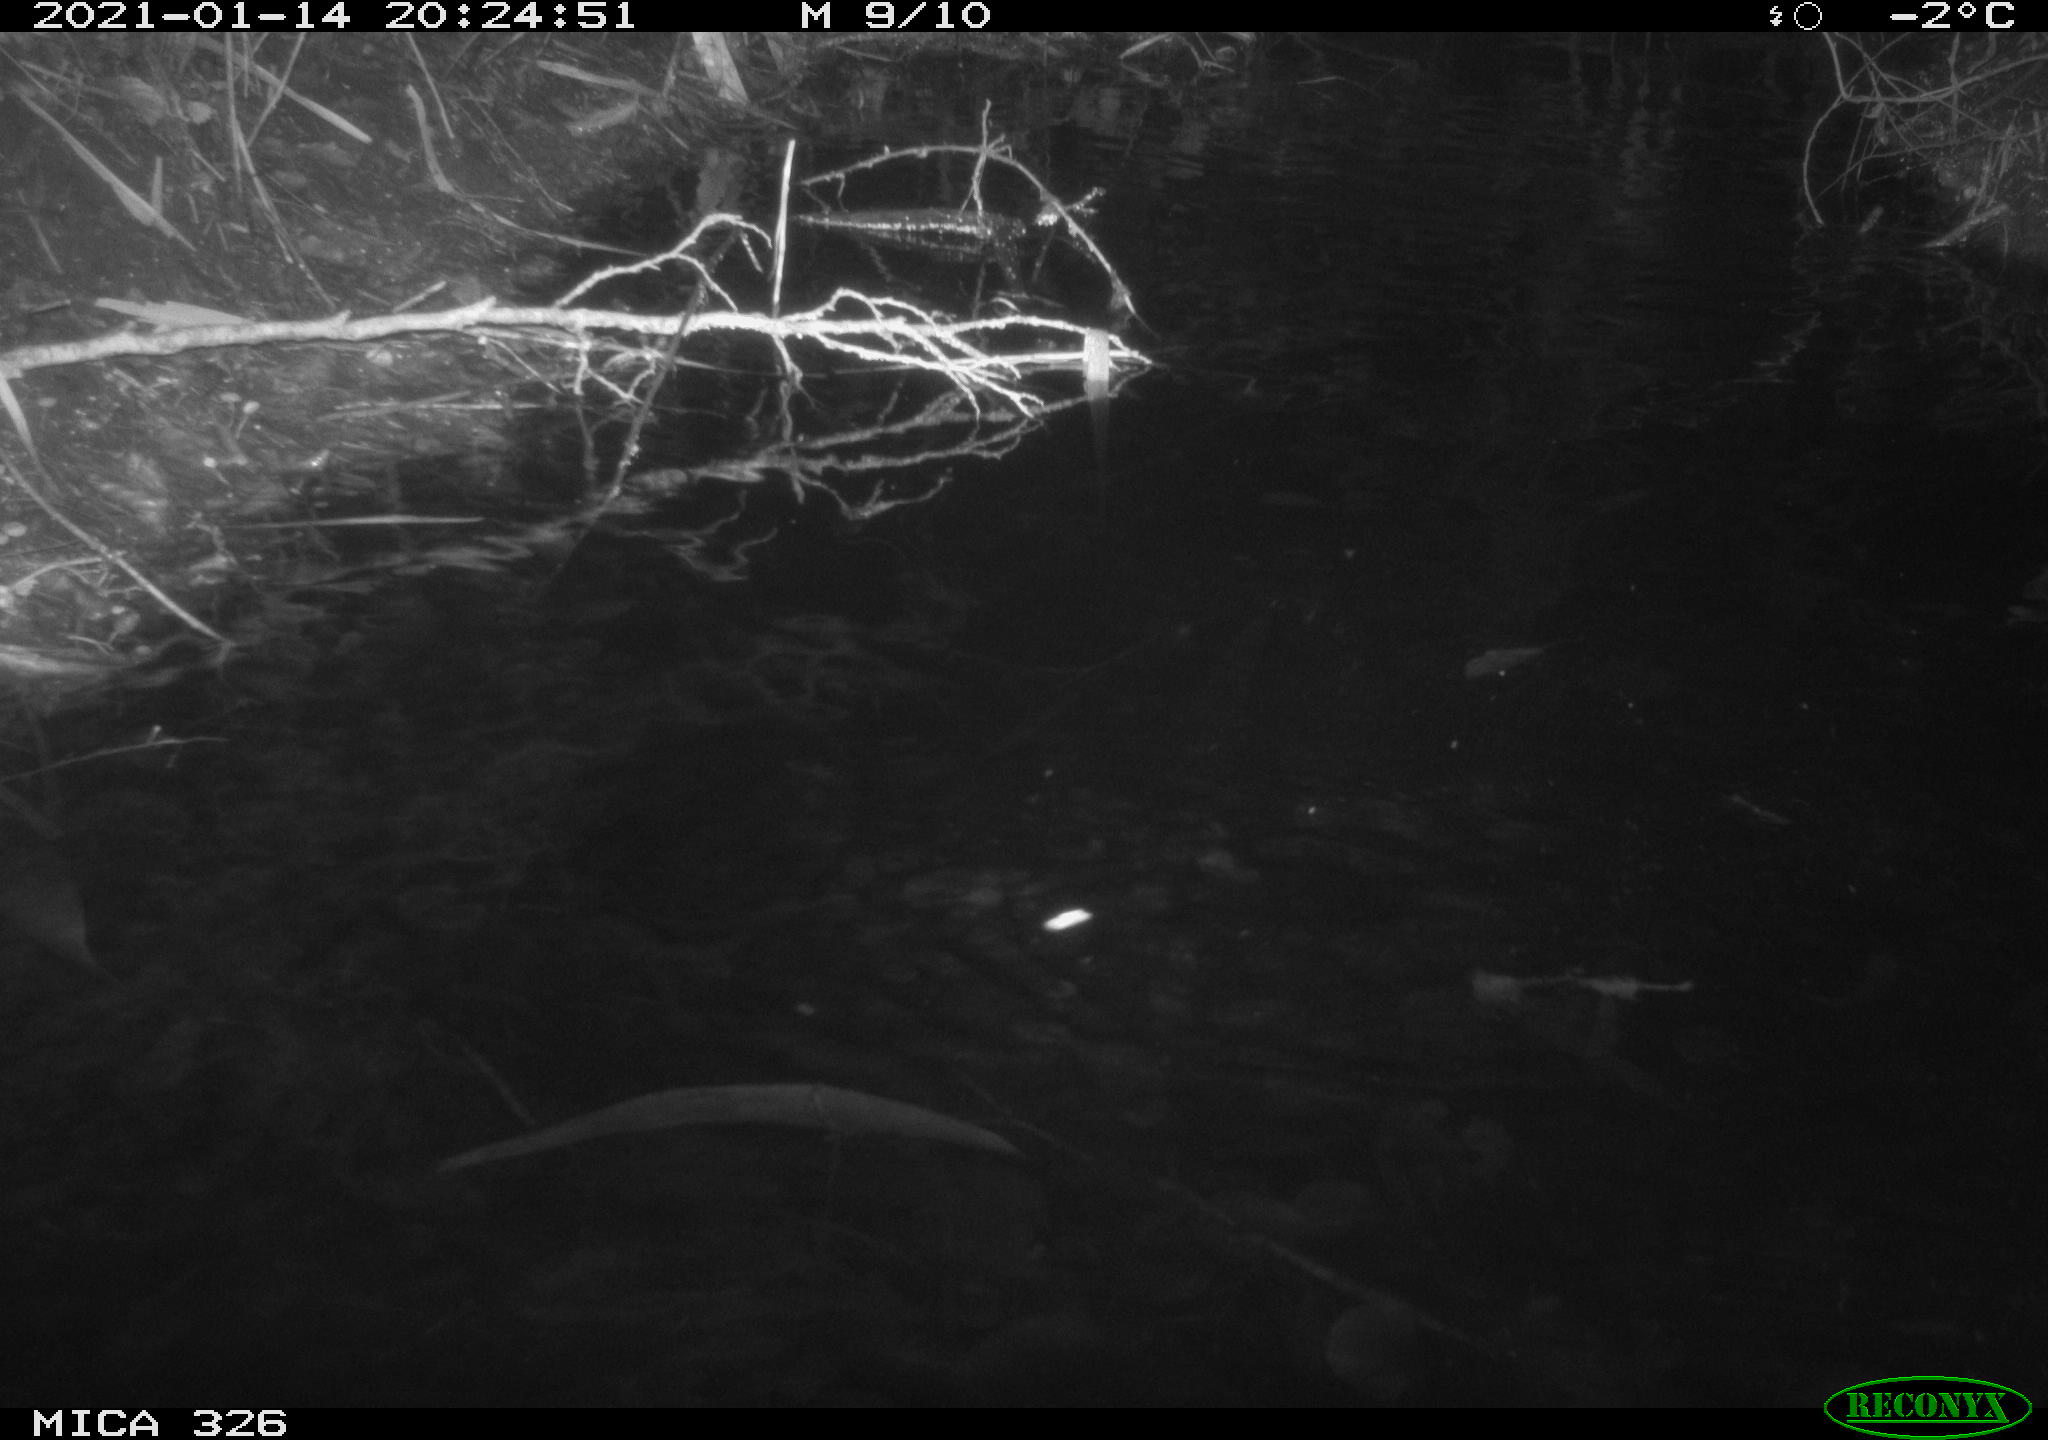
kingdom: Animalia
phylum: Chordata
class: Mammalia
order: Rodentia
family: Myocastoridae
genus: Myocastor
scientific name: Myocastor coypus
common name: Coypu
